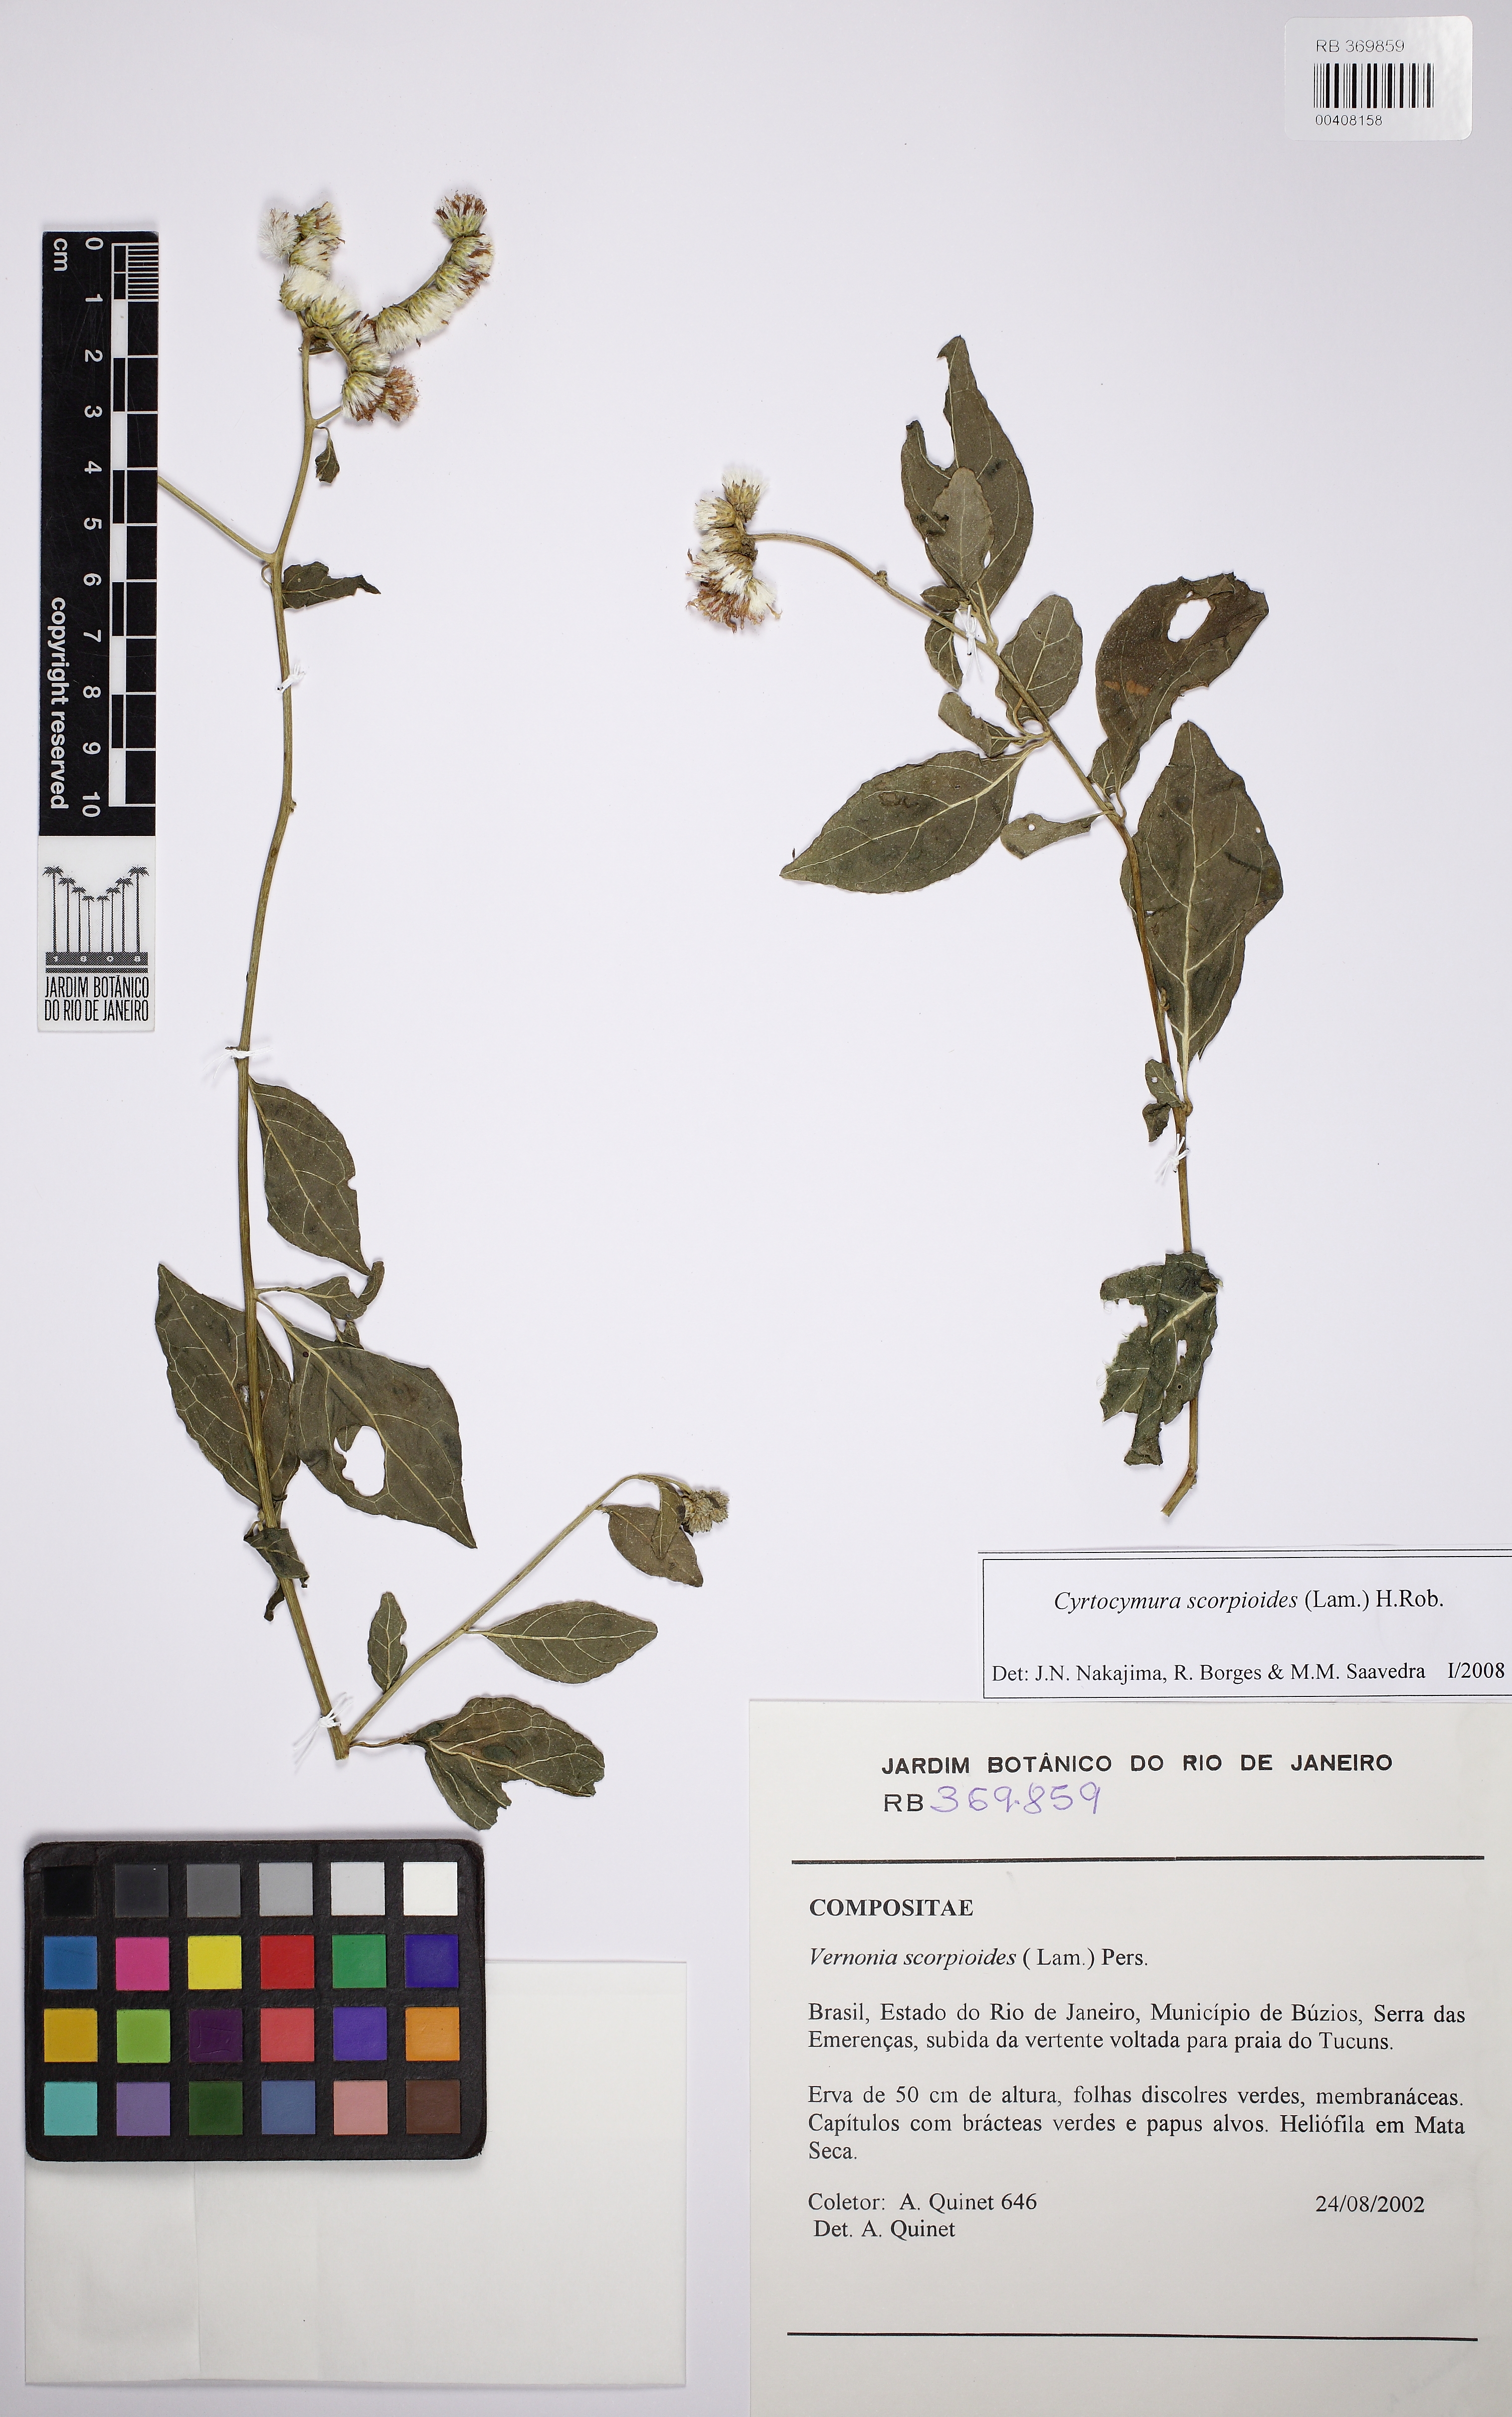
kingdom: Plantae
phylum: Tracheophyta
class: Magnoliopsida
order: Asterales
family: Asteraceae
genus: Cyrtocymura
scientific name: Cyrtocymura scorpioides
